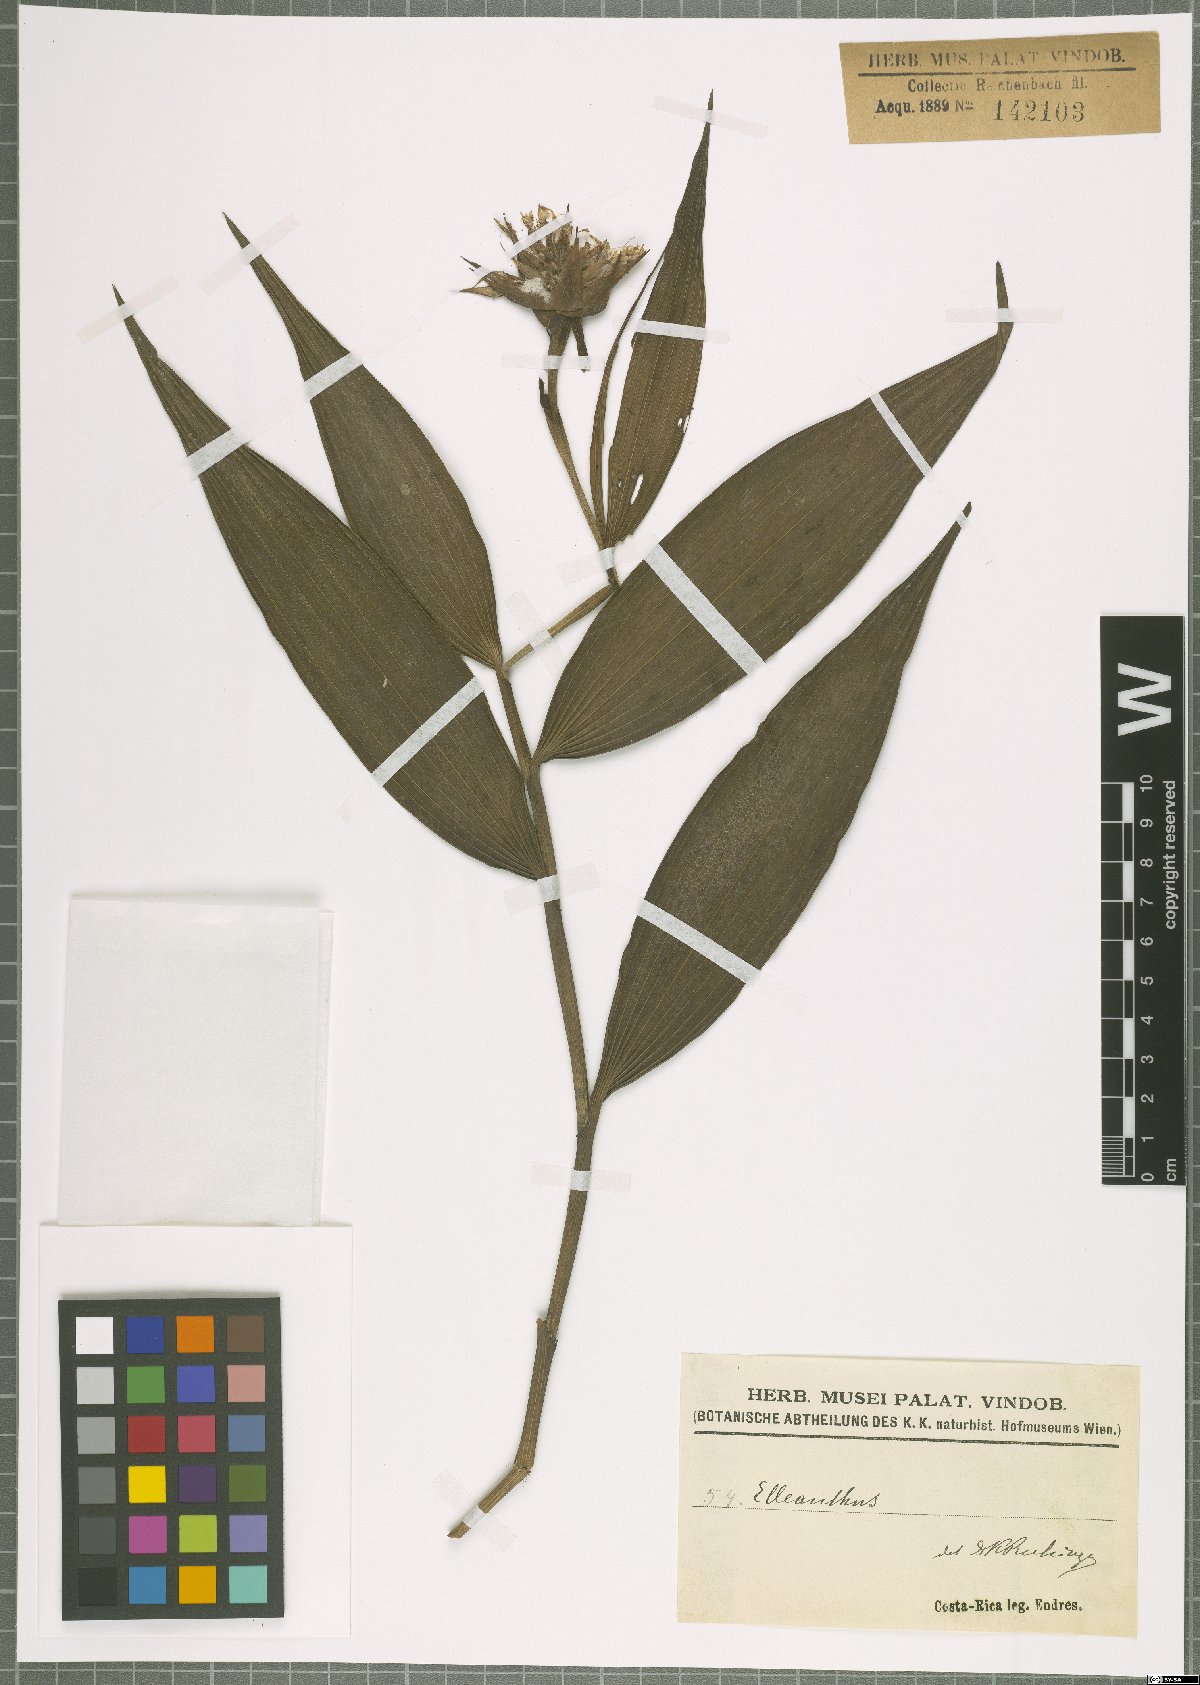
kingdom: Plantae
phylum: Tracheophyta
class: Liliopsida
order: Asparagales
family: Orchidaceae
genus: Elleanthus
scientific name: Elleanthus
